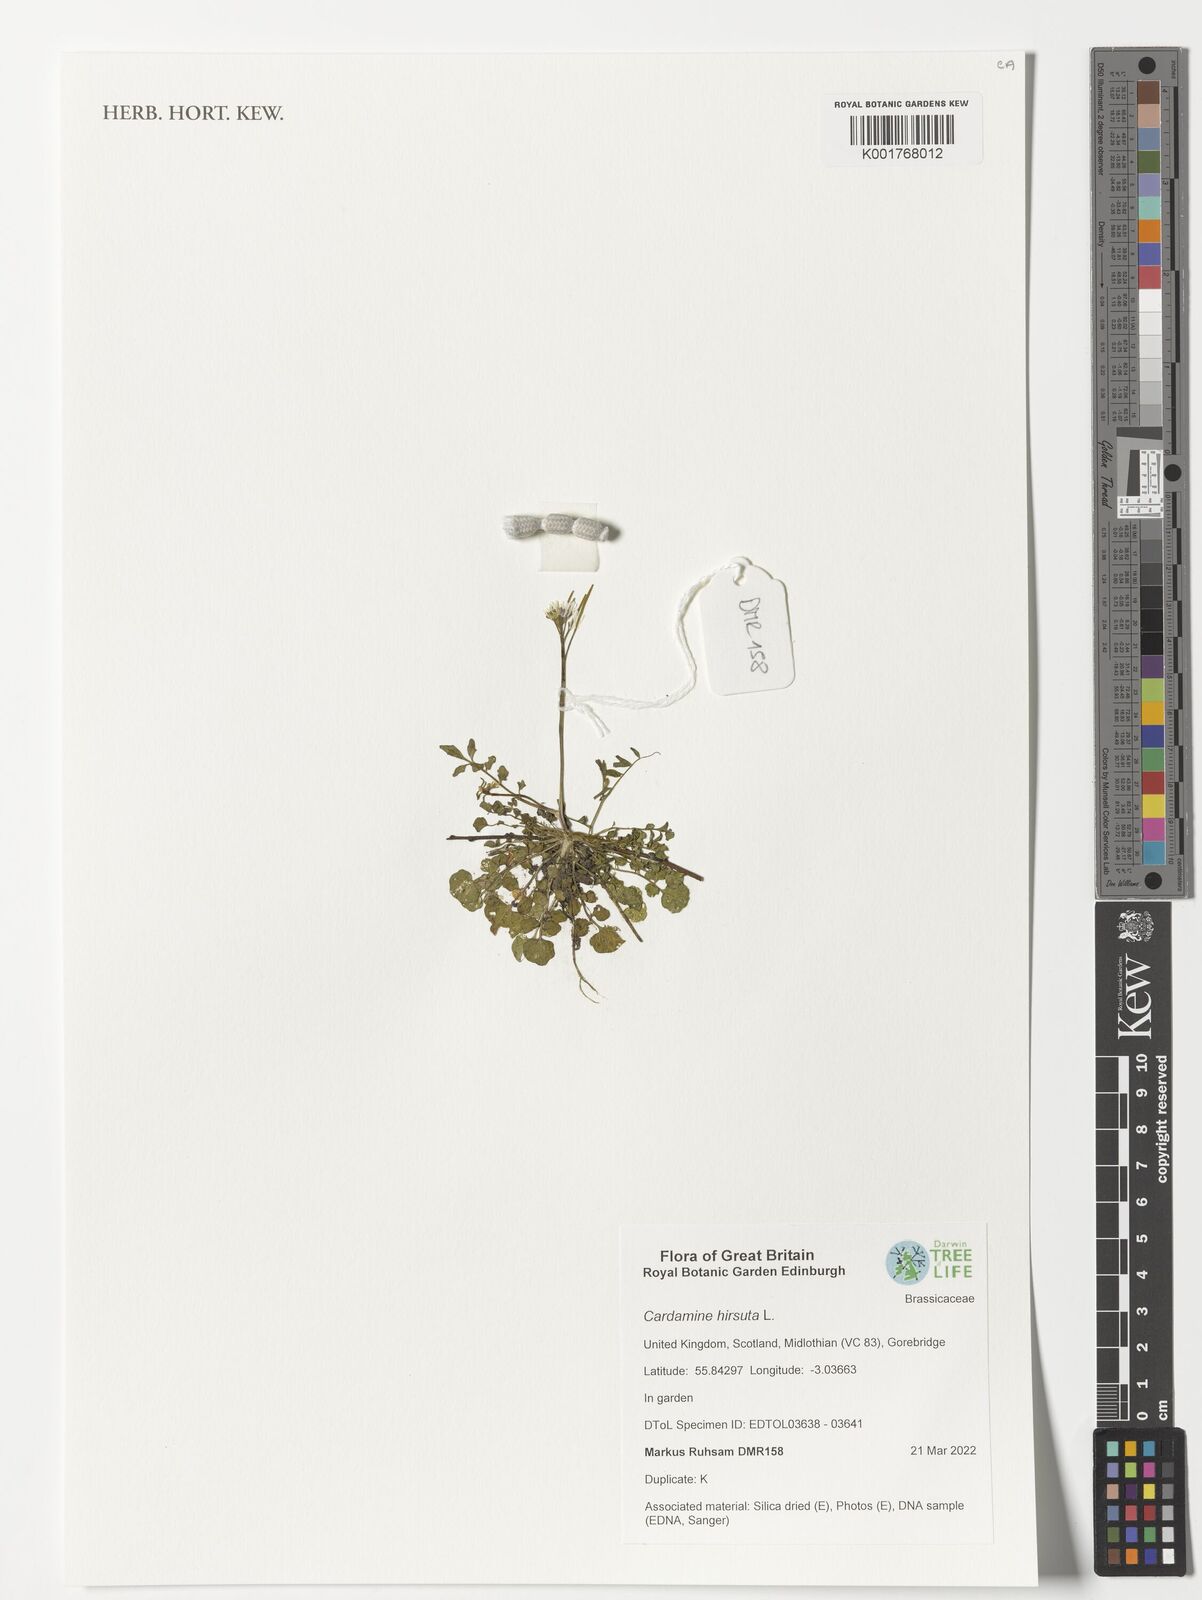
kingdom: Plantae
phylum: Tracheophyta
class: Magnoliopsida
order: Brassicales
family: Brassicaceae
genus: Cardamine
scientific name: Cardamine hirsuta
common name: Hairy bittercress
